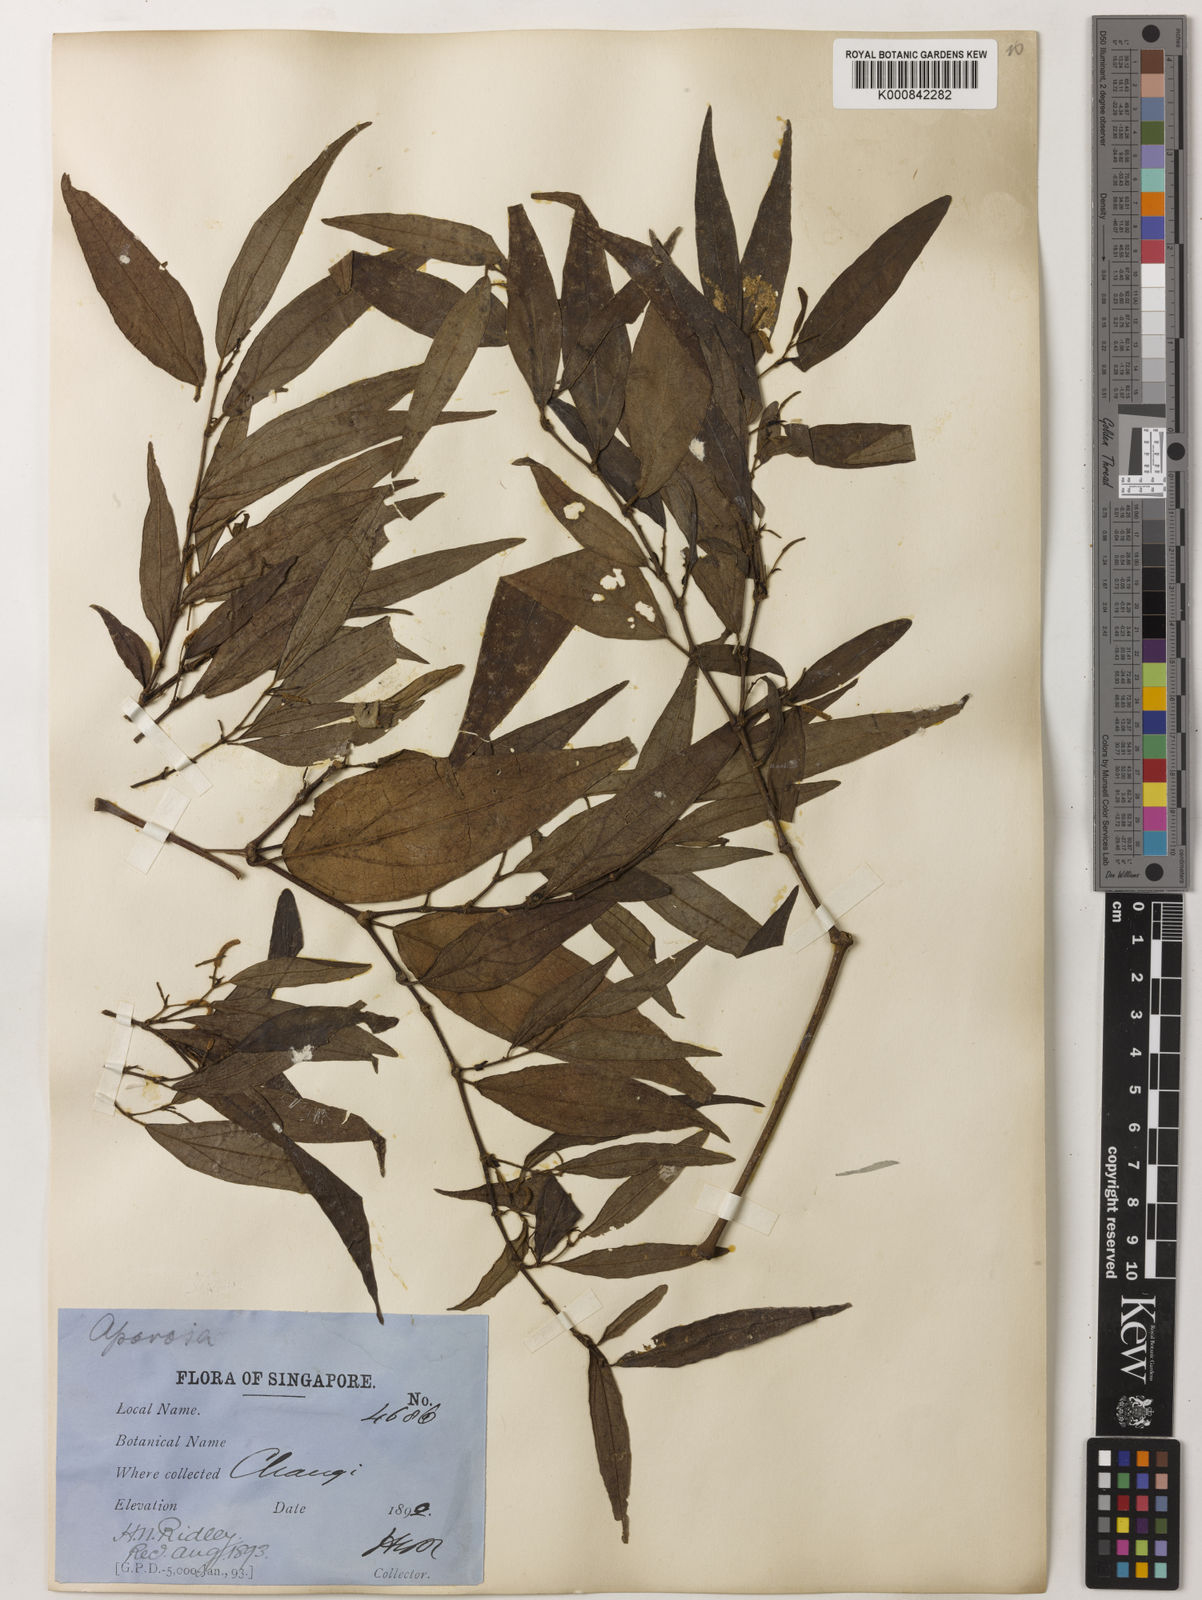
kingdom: Plantae
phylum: Tracheophyta
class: Magnoliopsida
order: Piperales
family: Piperaceae
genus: Piper
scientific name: Piper lanatum
